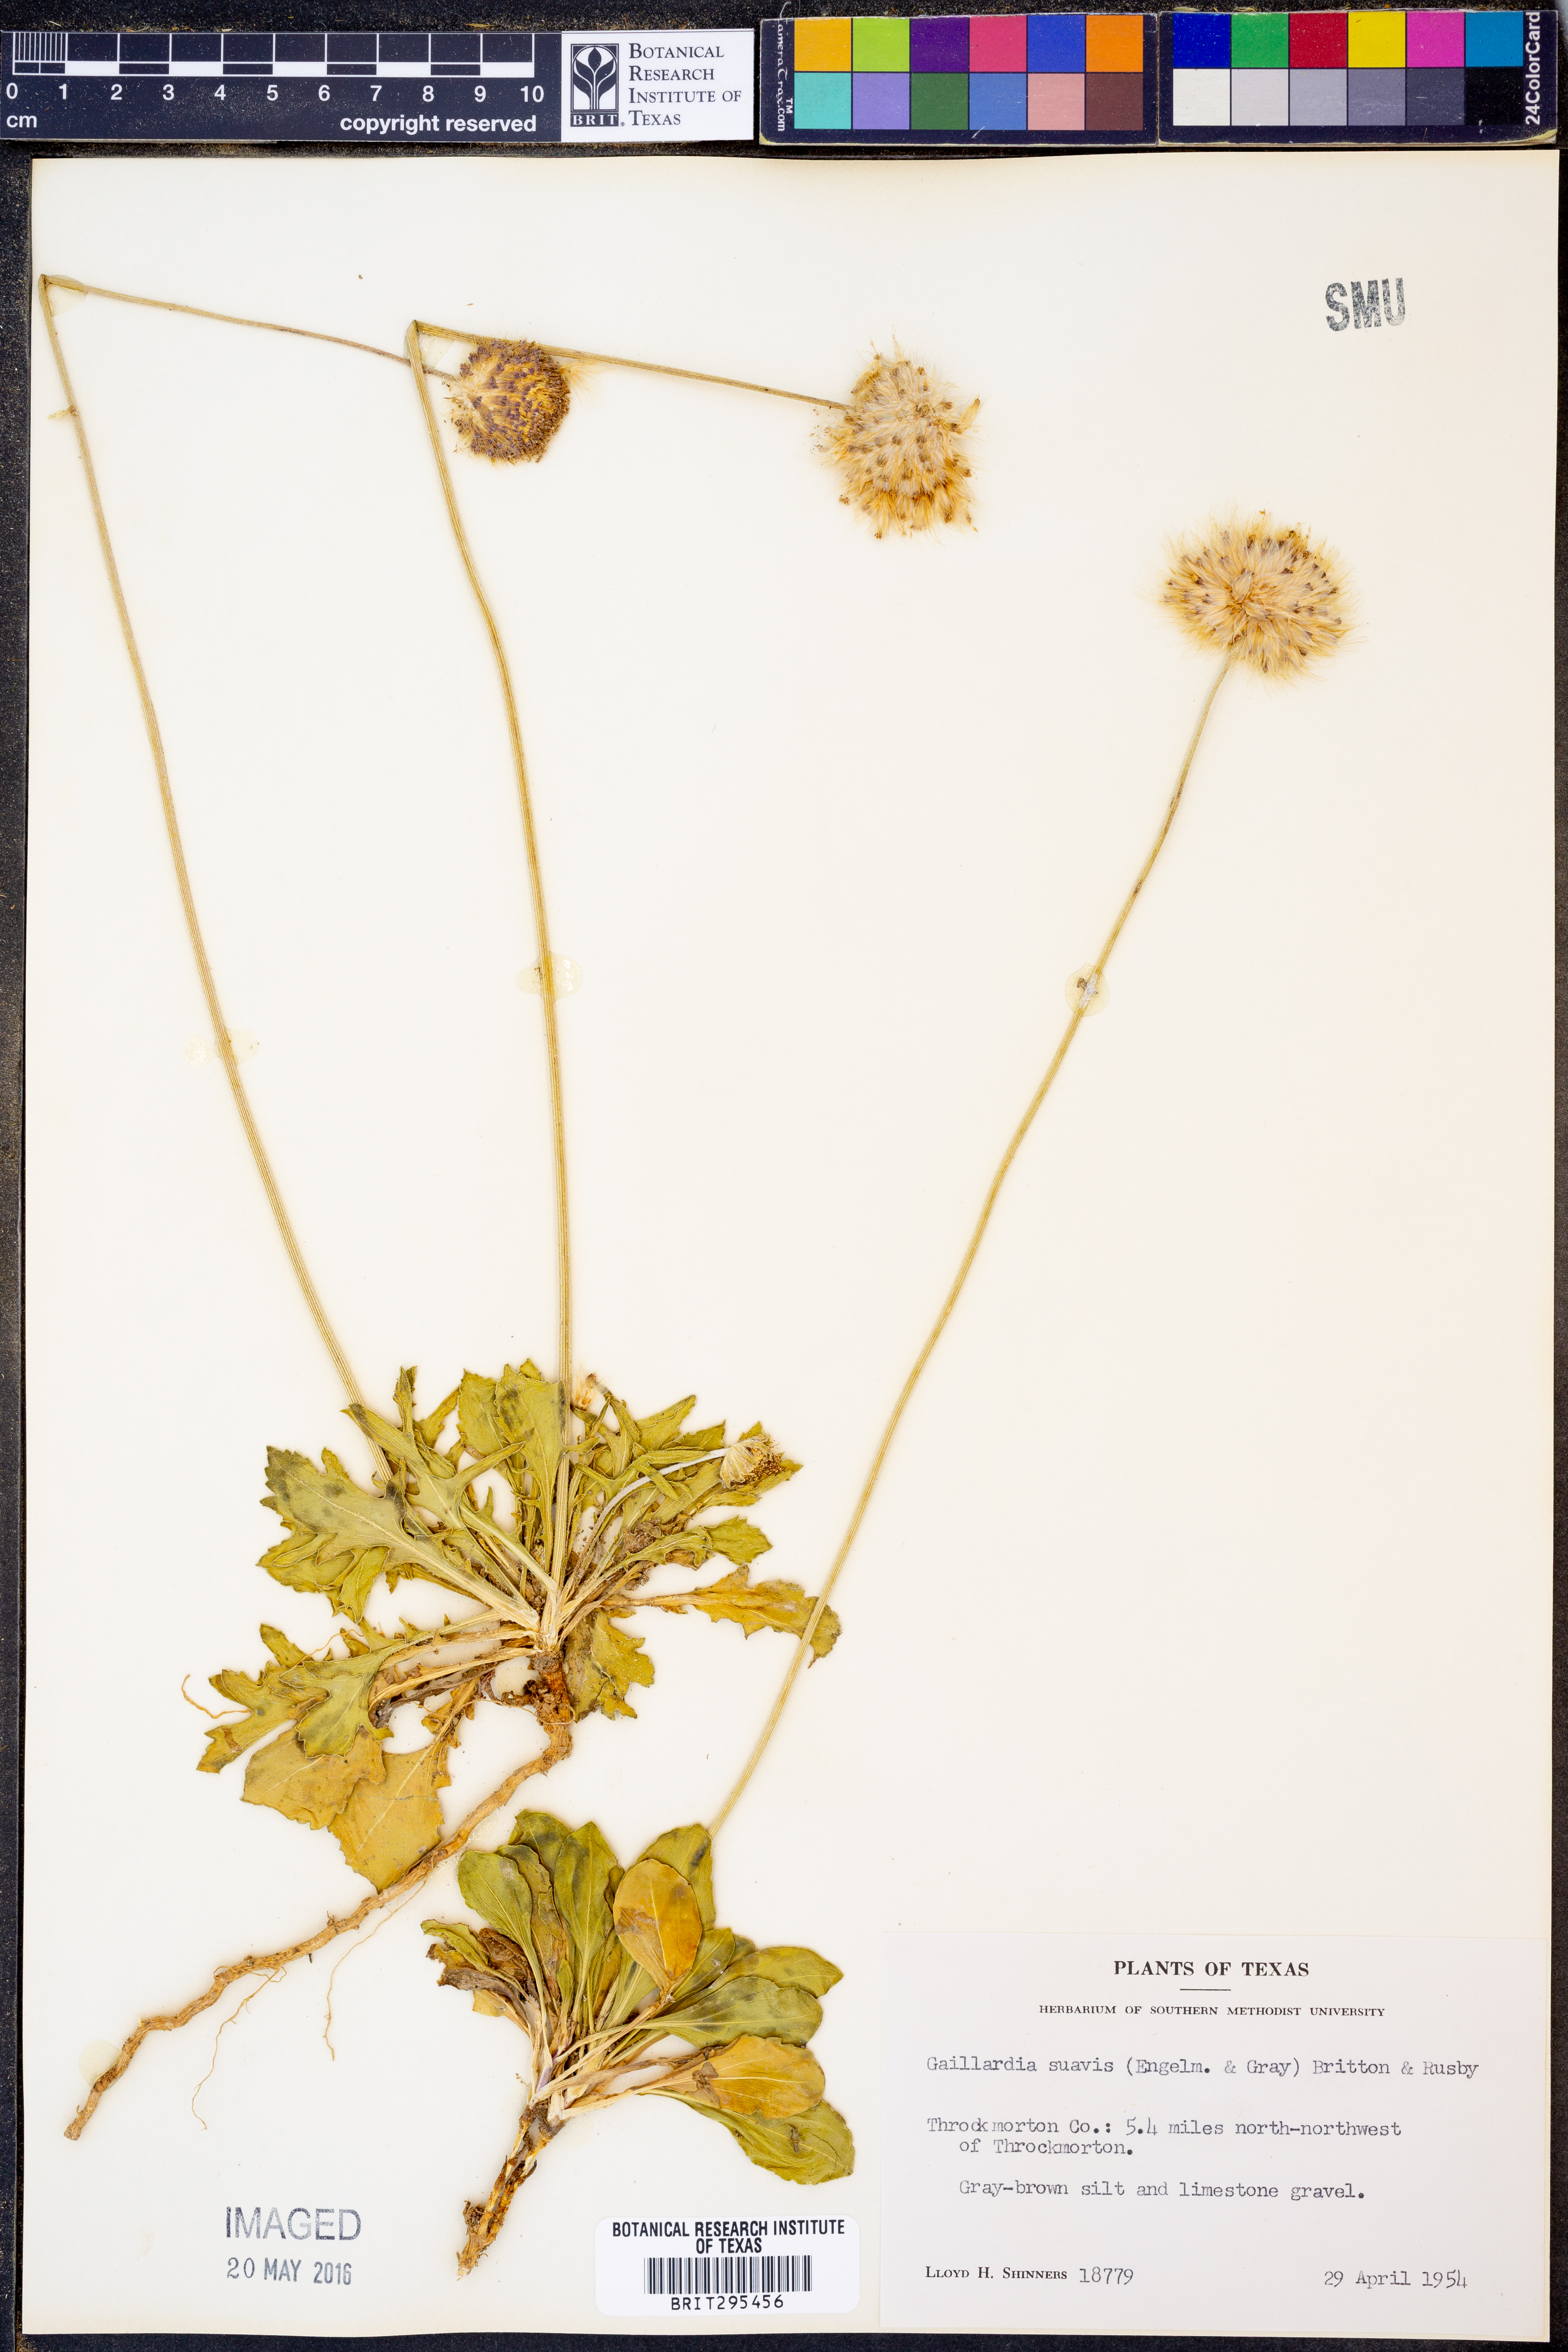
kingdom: Plantae
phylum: Tracheophyta
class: Magnoliopsida
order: Asterales
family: Asteraceae
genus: Gaillardia
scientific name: Gaillardia suavis
